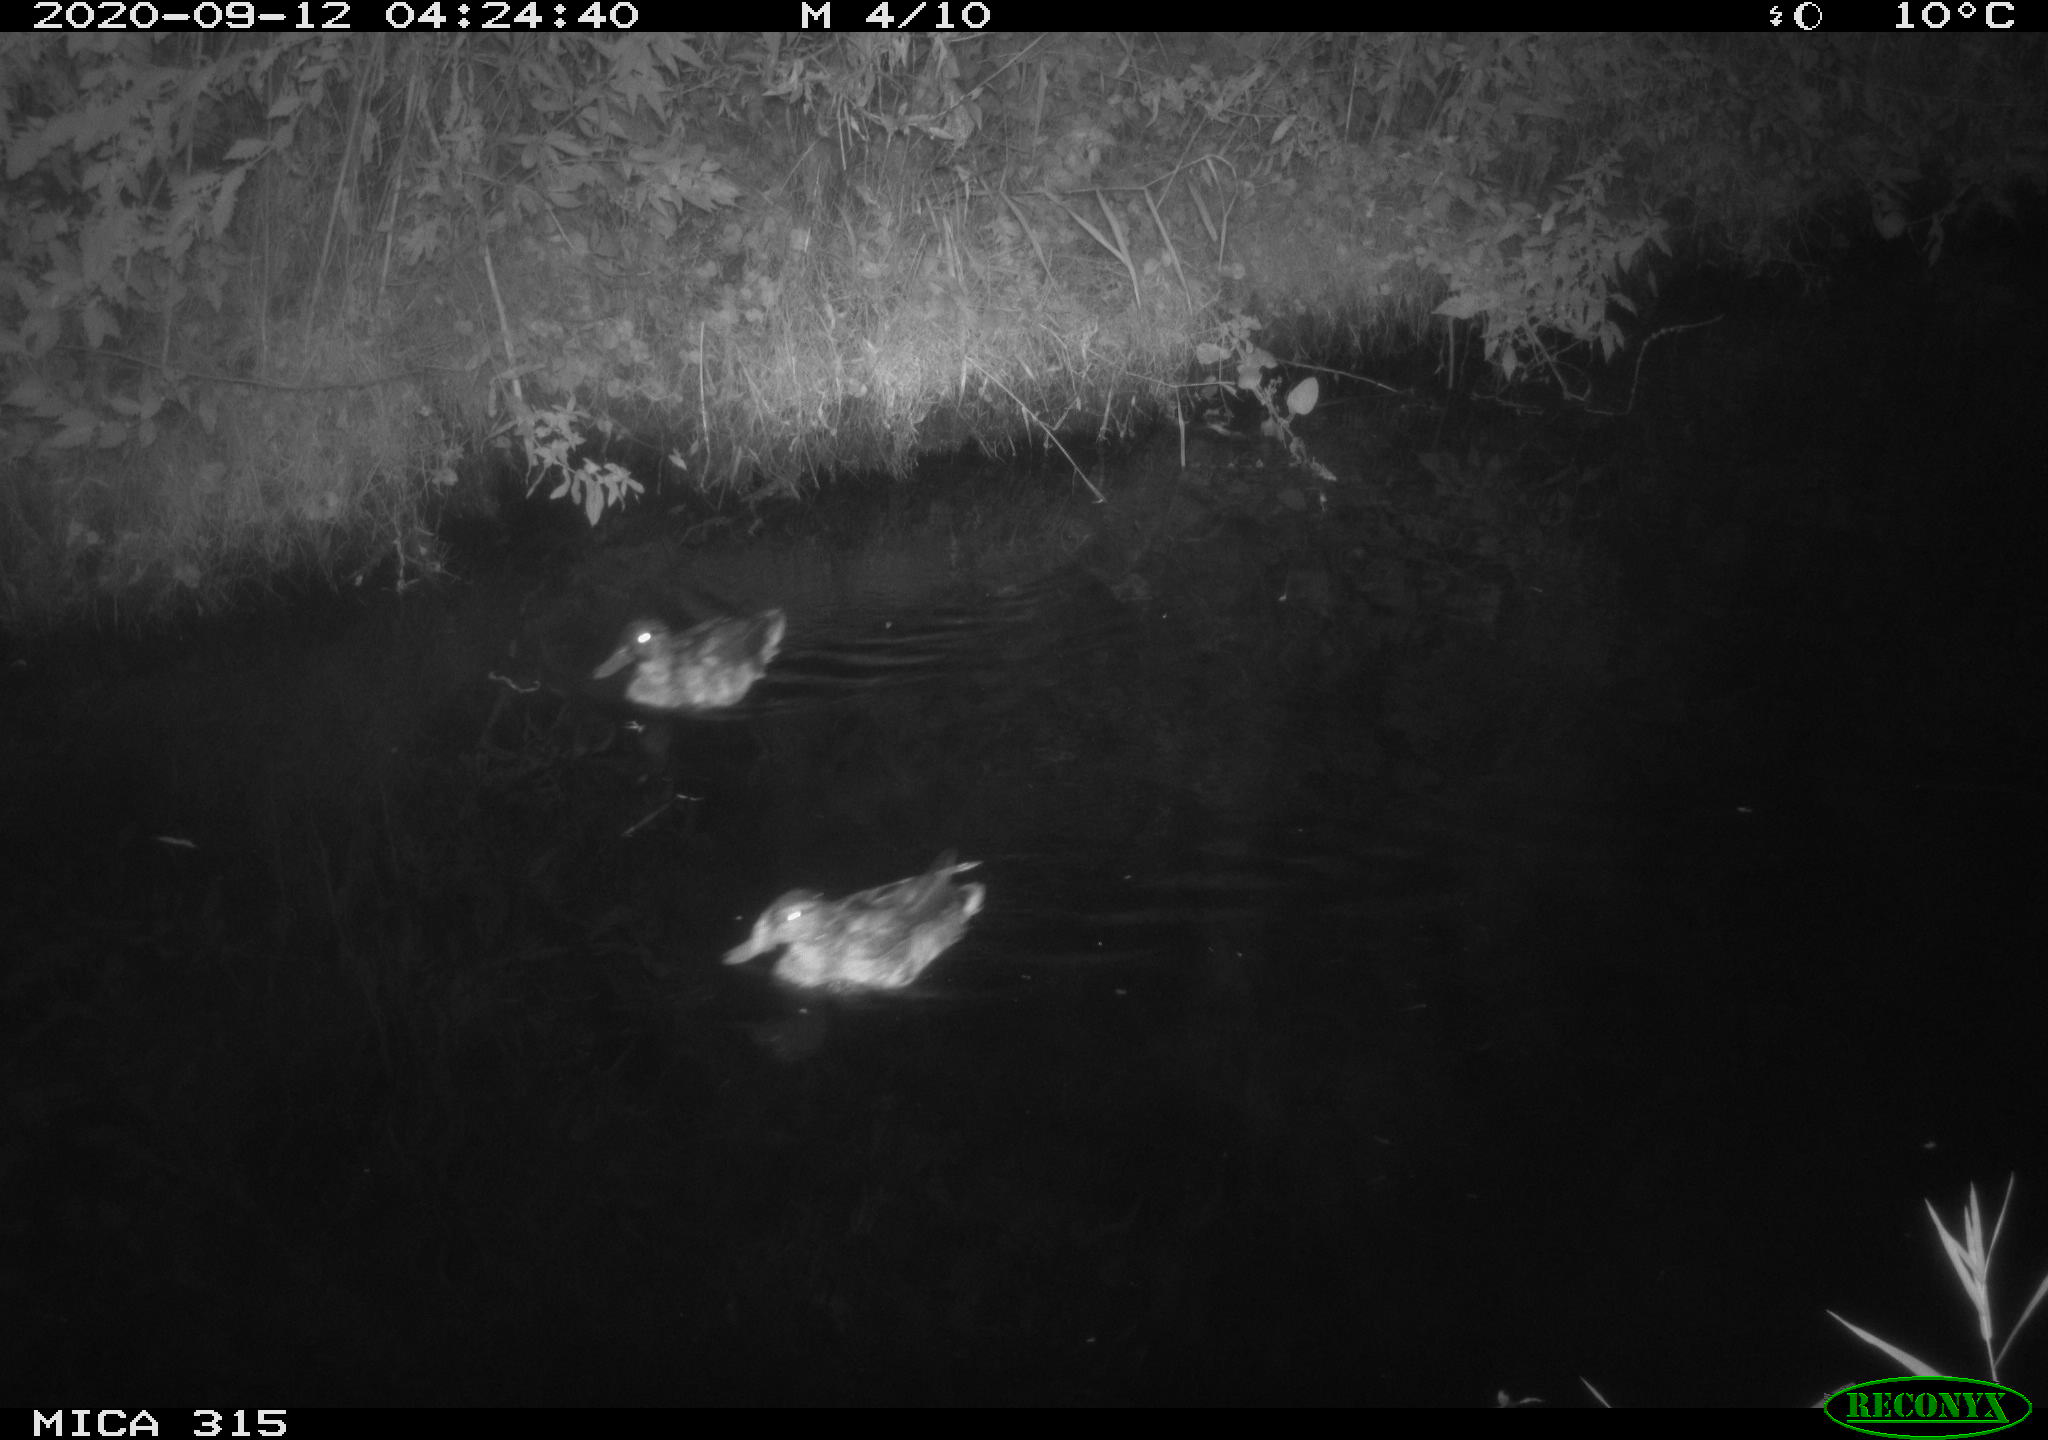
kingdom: Animalia
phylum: Chordata
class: Aves
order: Anseriformes
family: Anatidae
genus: Anas
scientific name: Anas platyrhynchos
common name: Mallard
